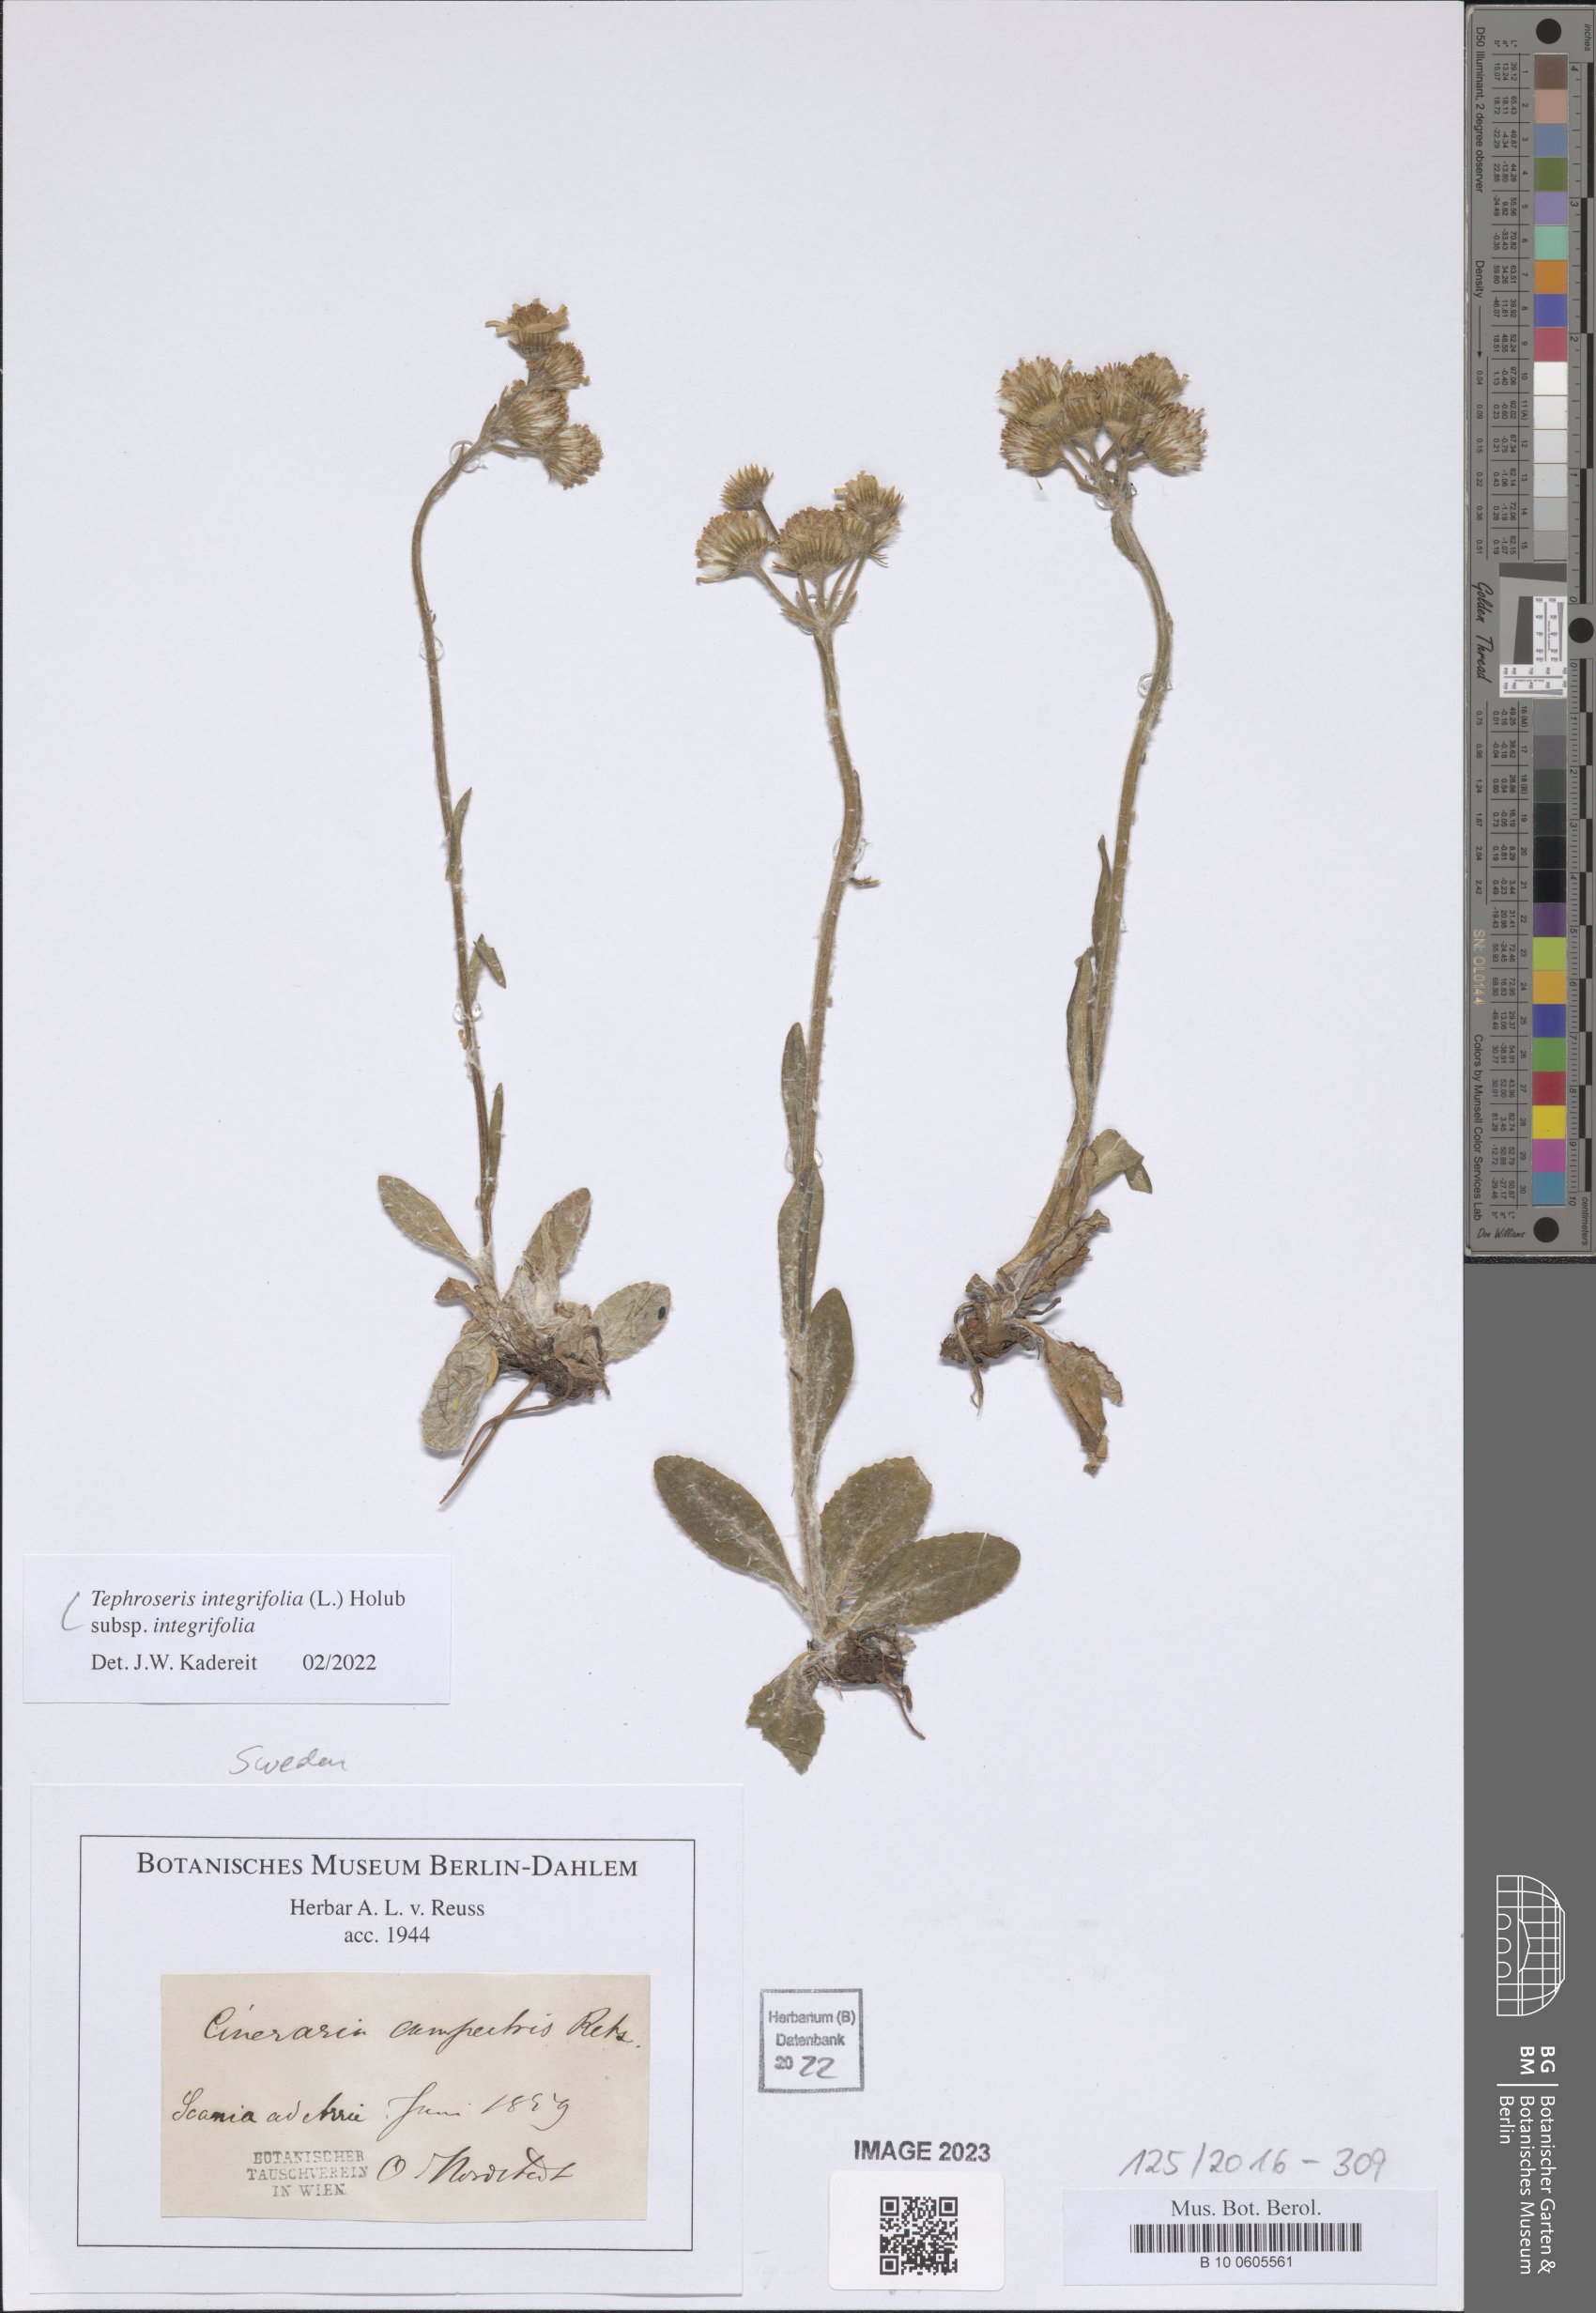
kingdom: Plantae
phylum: Tracheophyta
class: Magnoliopsida
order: Asterales
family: Asteraceae
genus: Tephroseris
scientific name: Tephroseris integrifolia
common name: Field fleawort
